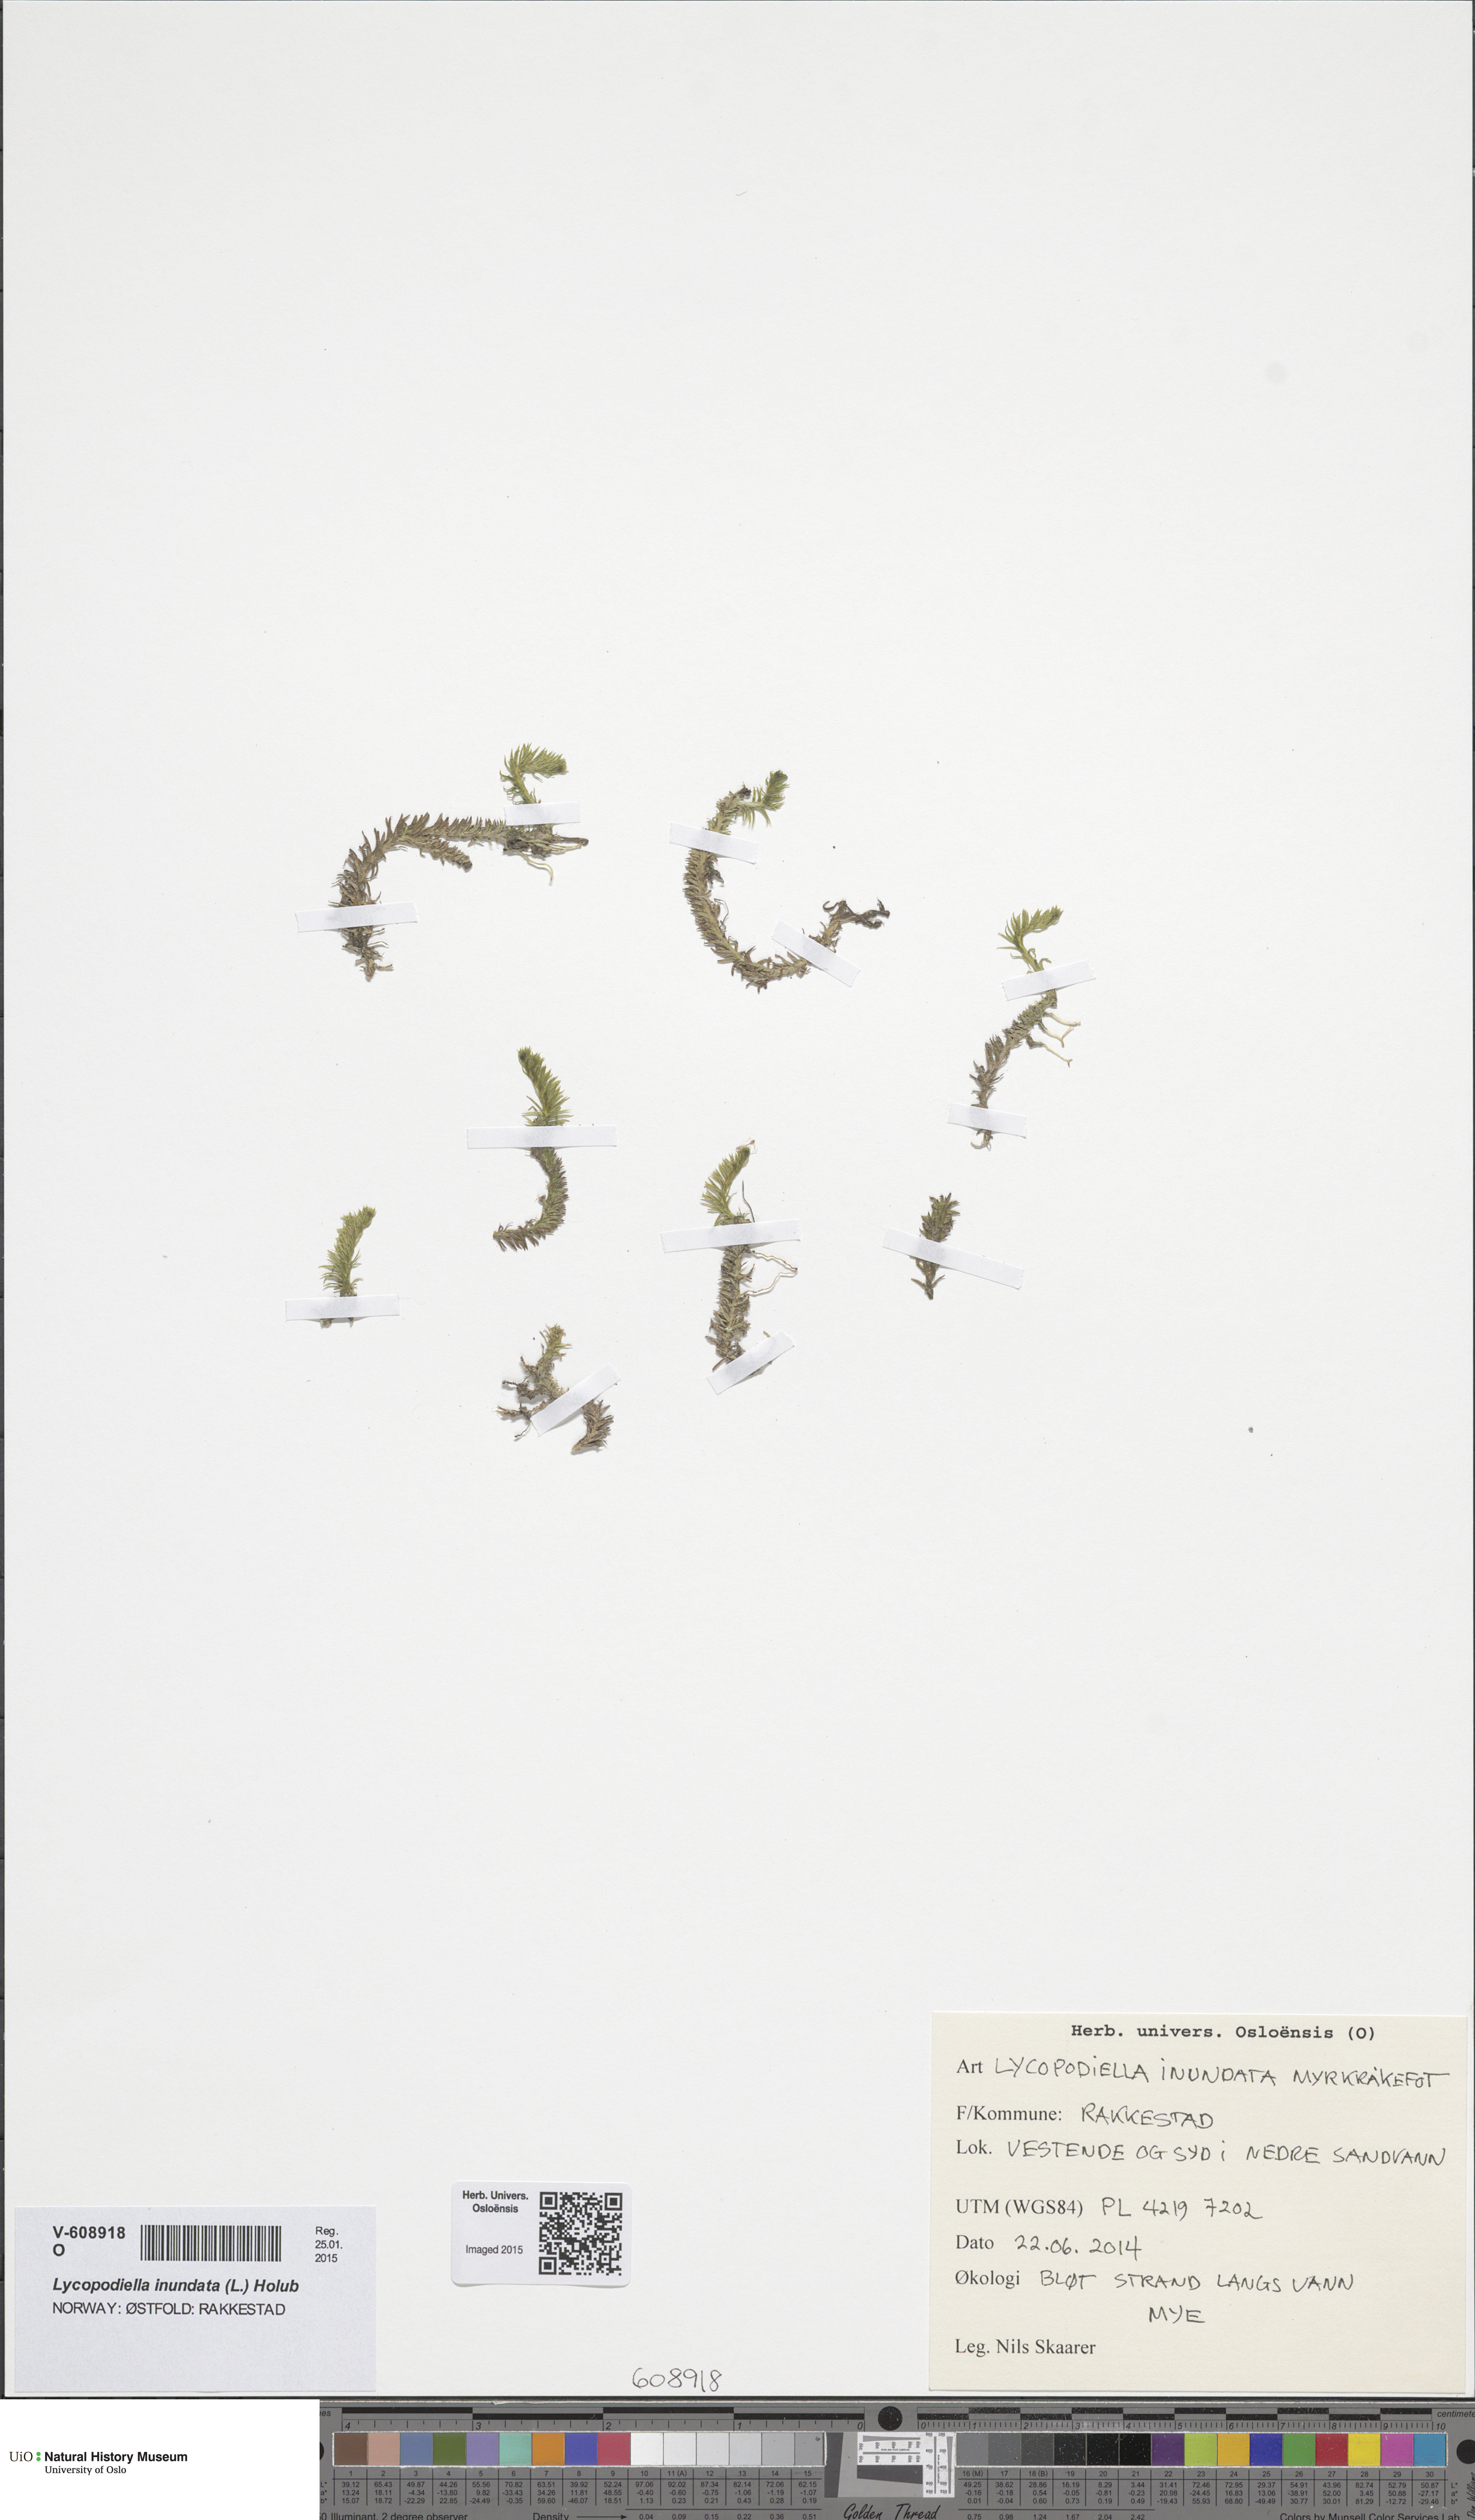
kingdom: Plantae
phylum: Tracheophyta
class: Lycopodiopsida
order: Lycopodiales
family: Lycopodiaceae
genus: Lycopodiella
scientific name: Lycopodiella inundata
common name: Marsh clubmoss
